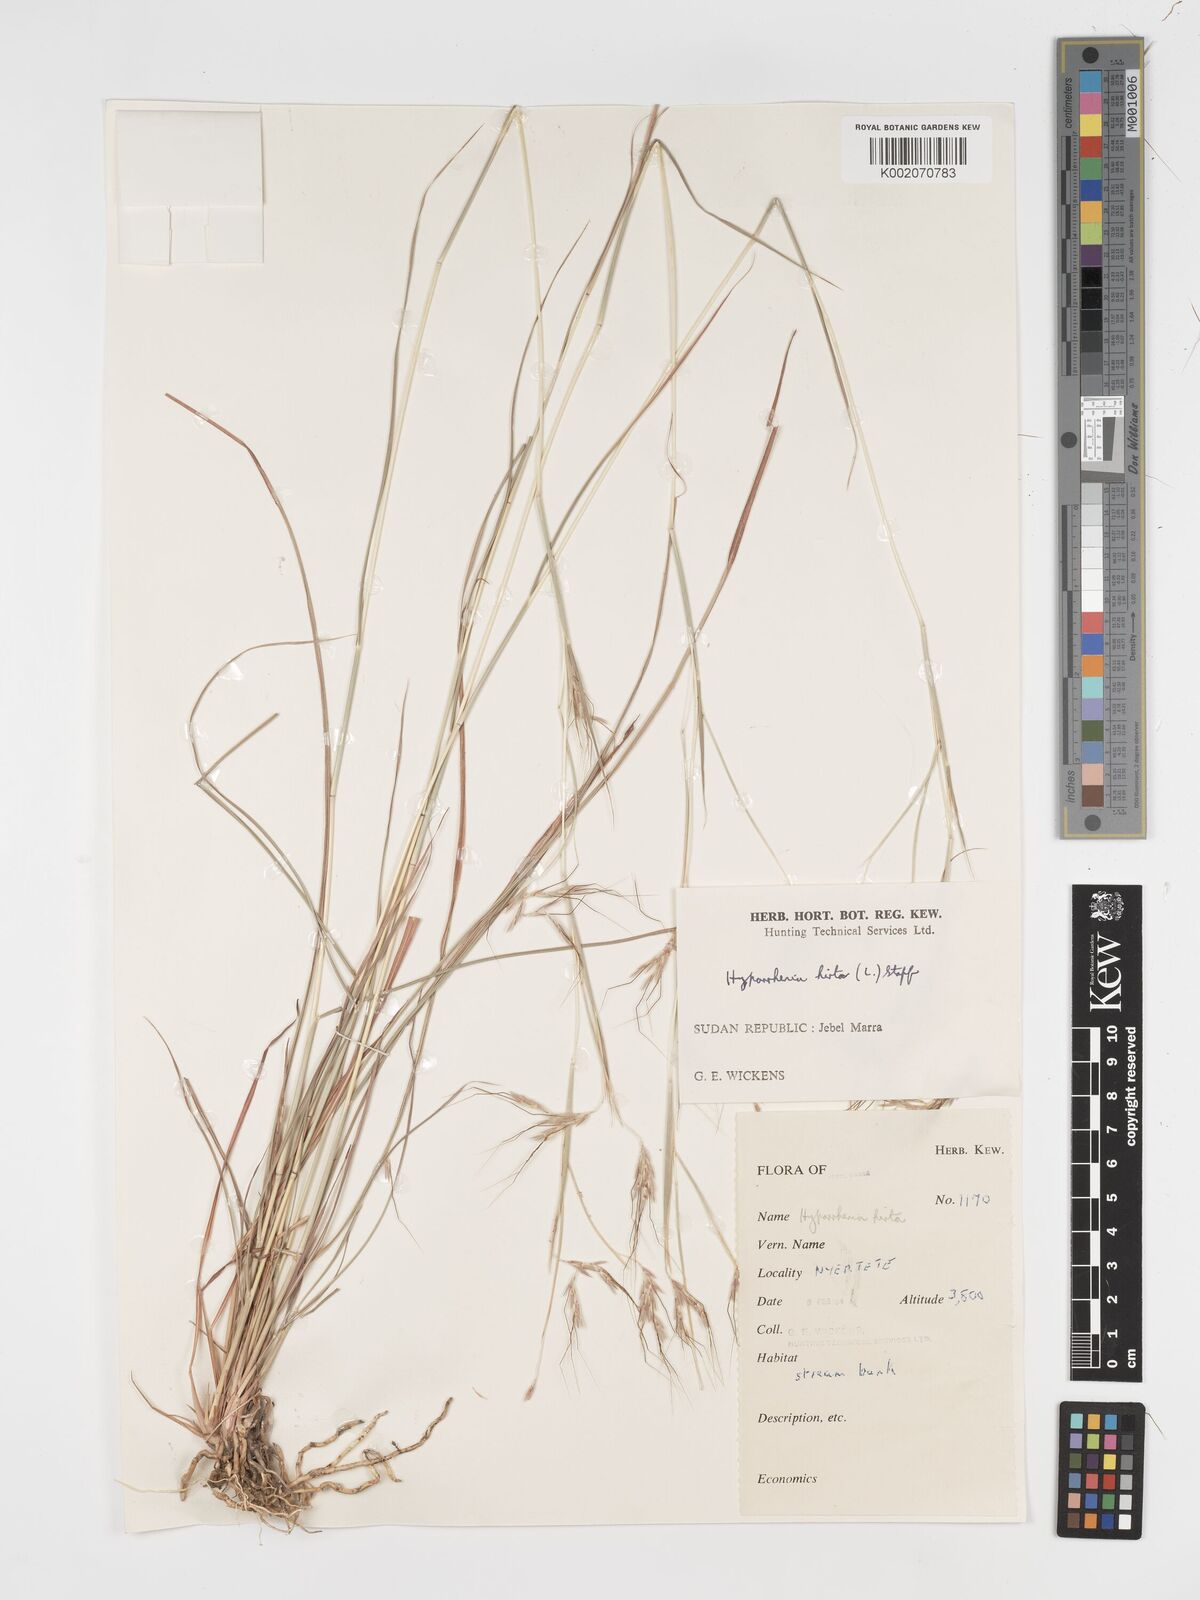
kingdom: Plantae
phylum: Tracheophyta
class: Liliopsida
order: Poales
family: Poaceae
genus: Hyparrhenia
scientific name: Hyparrhenia hirta
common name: Thatching grass
